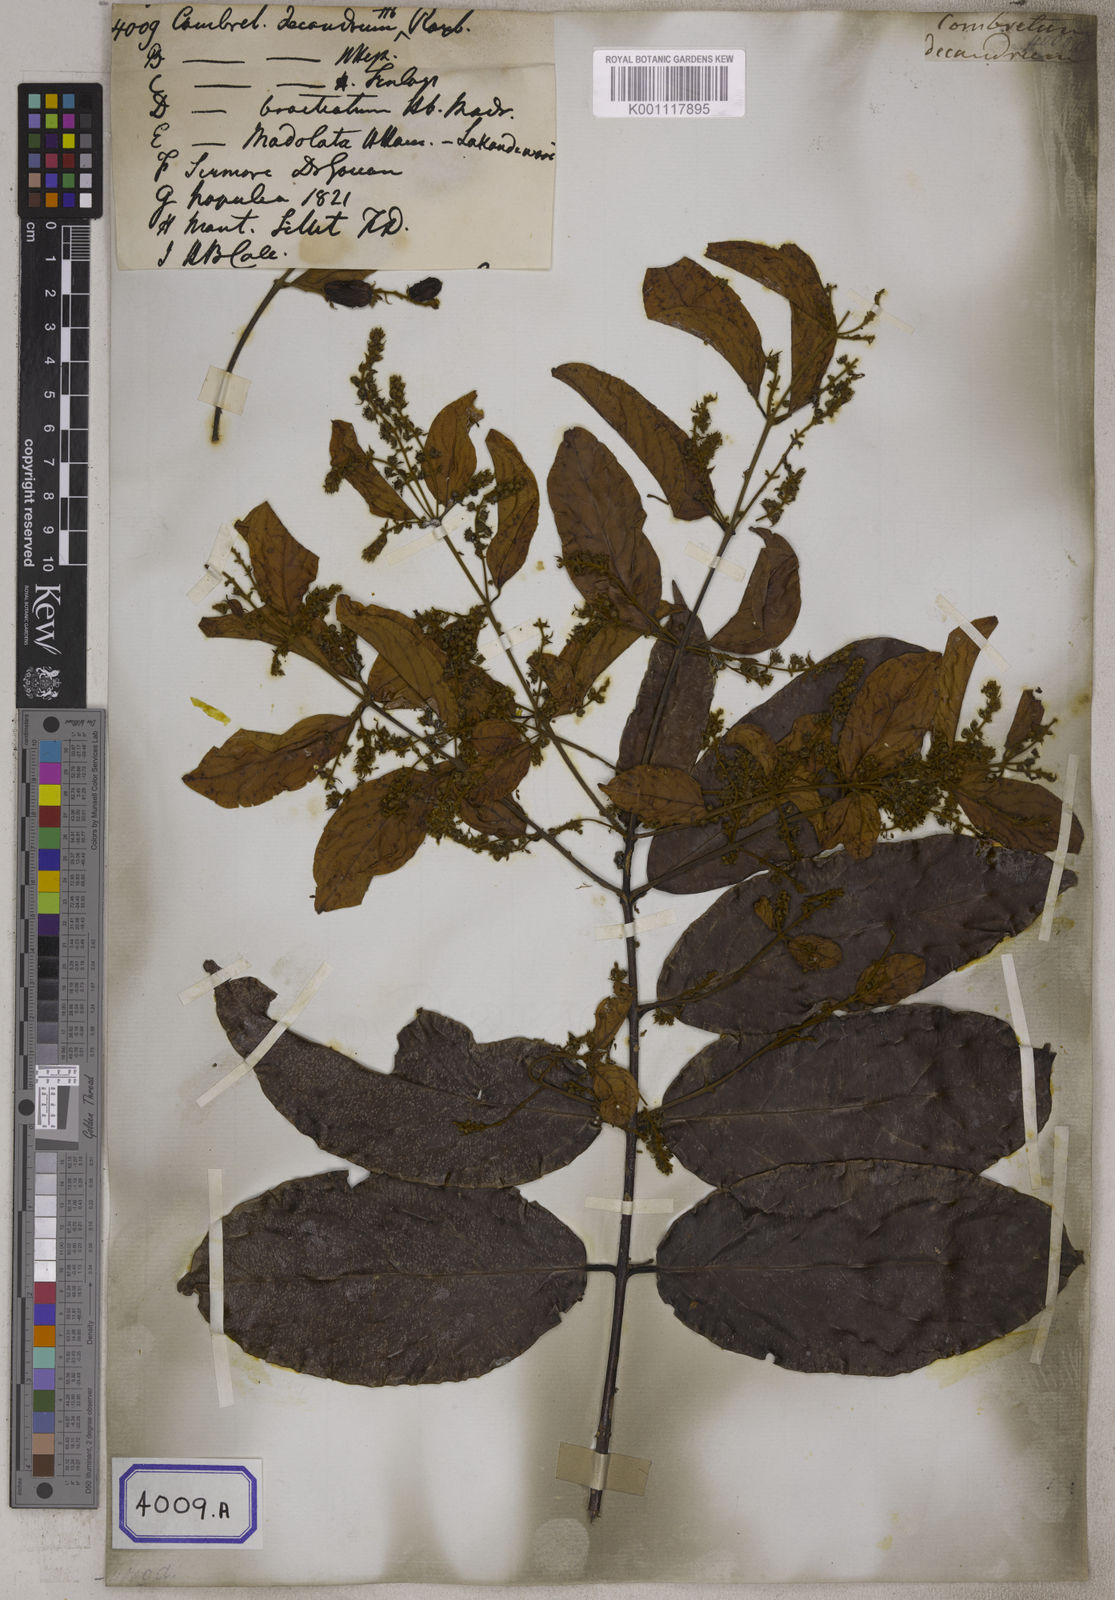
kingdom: Plantae
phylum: Tracheophyta
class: Magnoliopsida
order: Myrtales
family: Combretaceae
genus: Combretum
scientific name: Combretum decandrum
